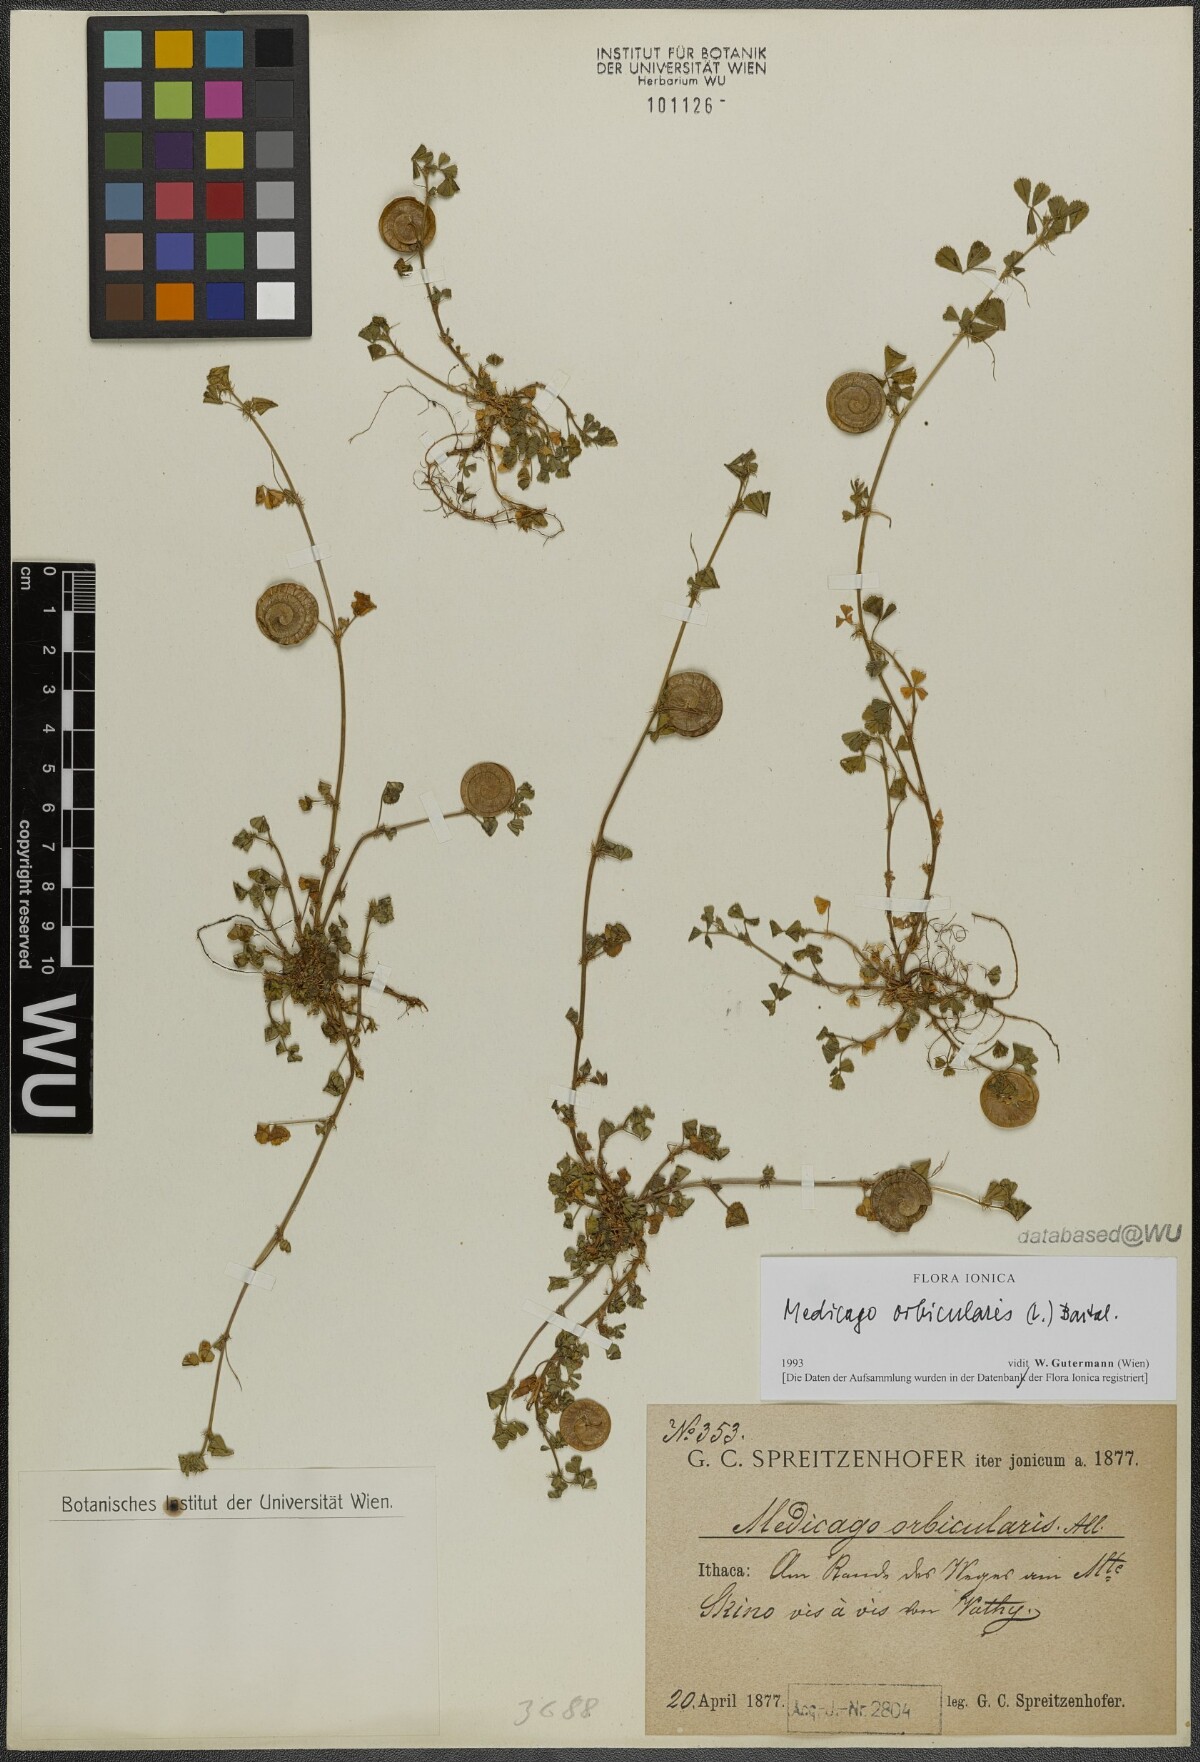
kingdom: Plantae
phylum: Tracheophyta
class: Magnoliopsida
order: Fabales
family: Fabaceae
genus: Medicago
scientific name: Medicago orbicularis
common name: Button medick
